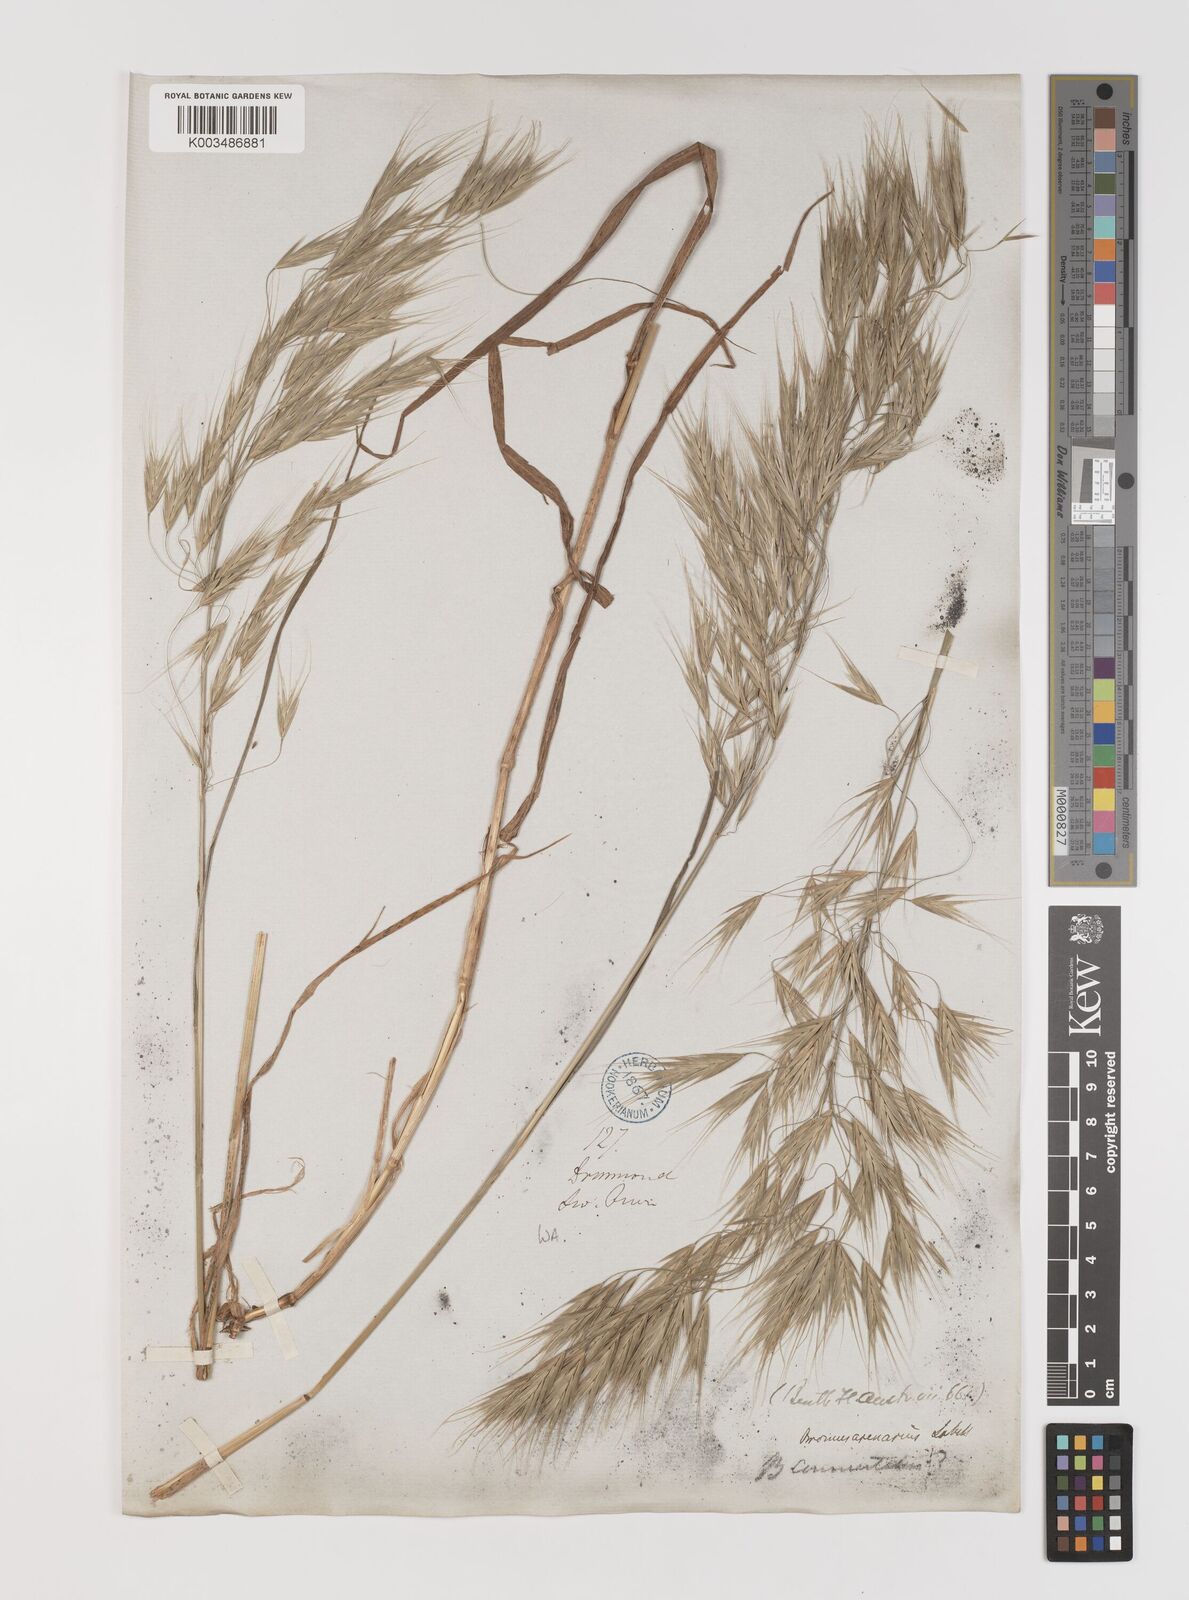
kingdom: Plantae
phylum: Tracheophyta
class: Liliopsida
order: Poales
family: Poaceae
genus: Bromus
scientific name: Bromus arenarius
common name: Australian brome
